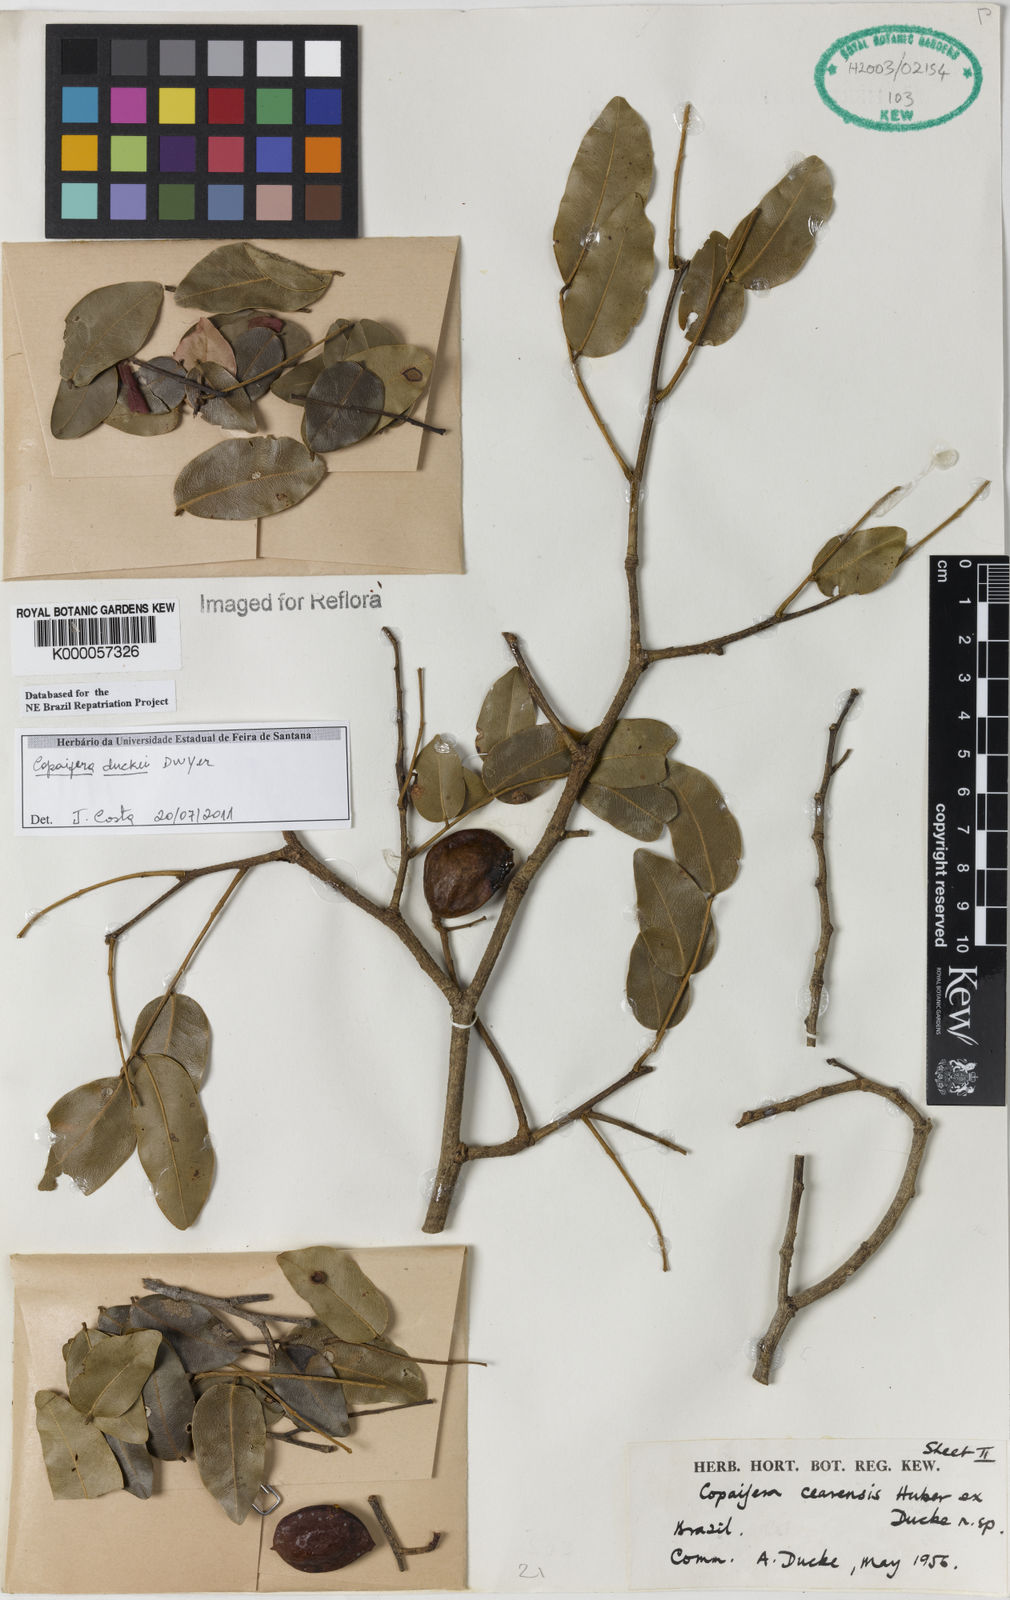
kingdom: Plantae
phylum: Tracheophyta
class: Magnoliopsida
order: Fabales
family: Fabaceae
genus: Copaifera
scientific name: Copaifera duckei
